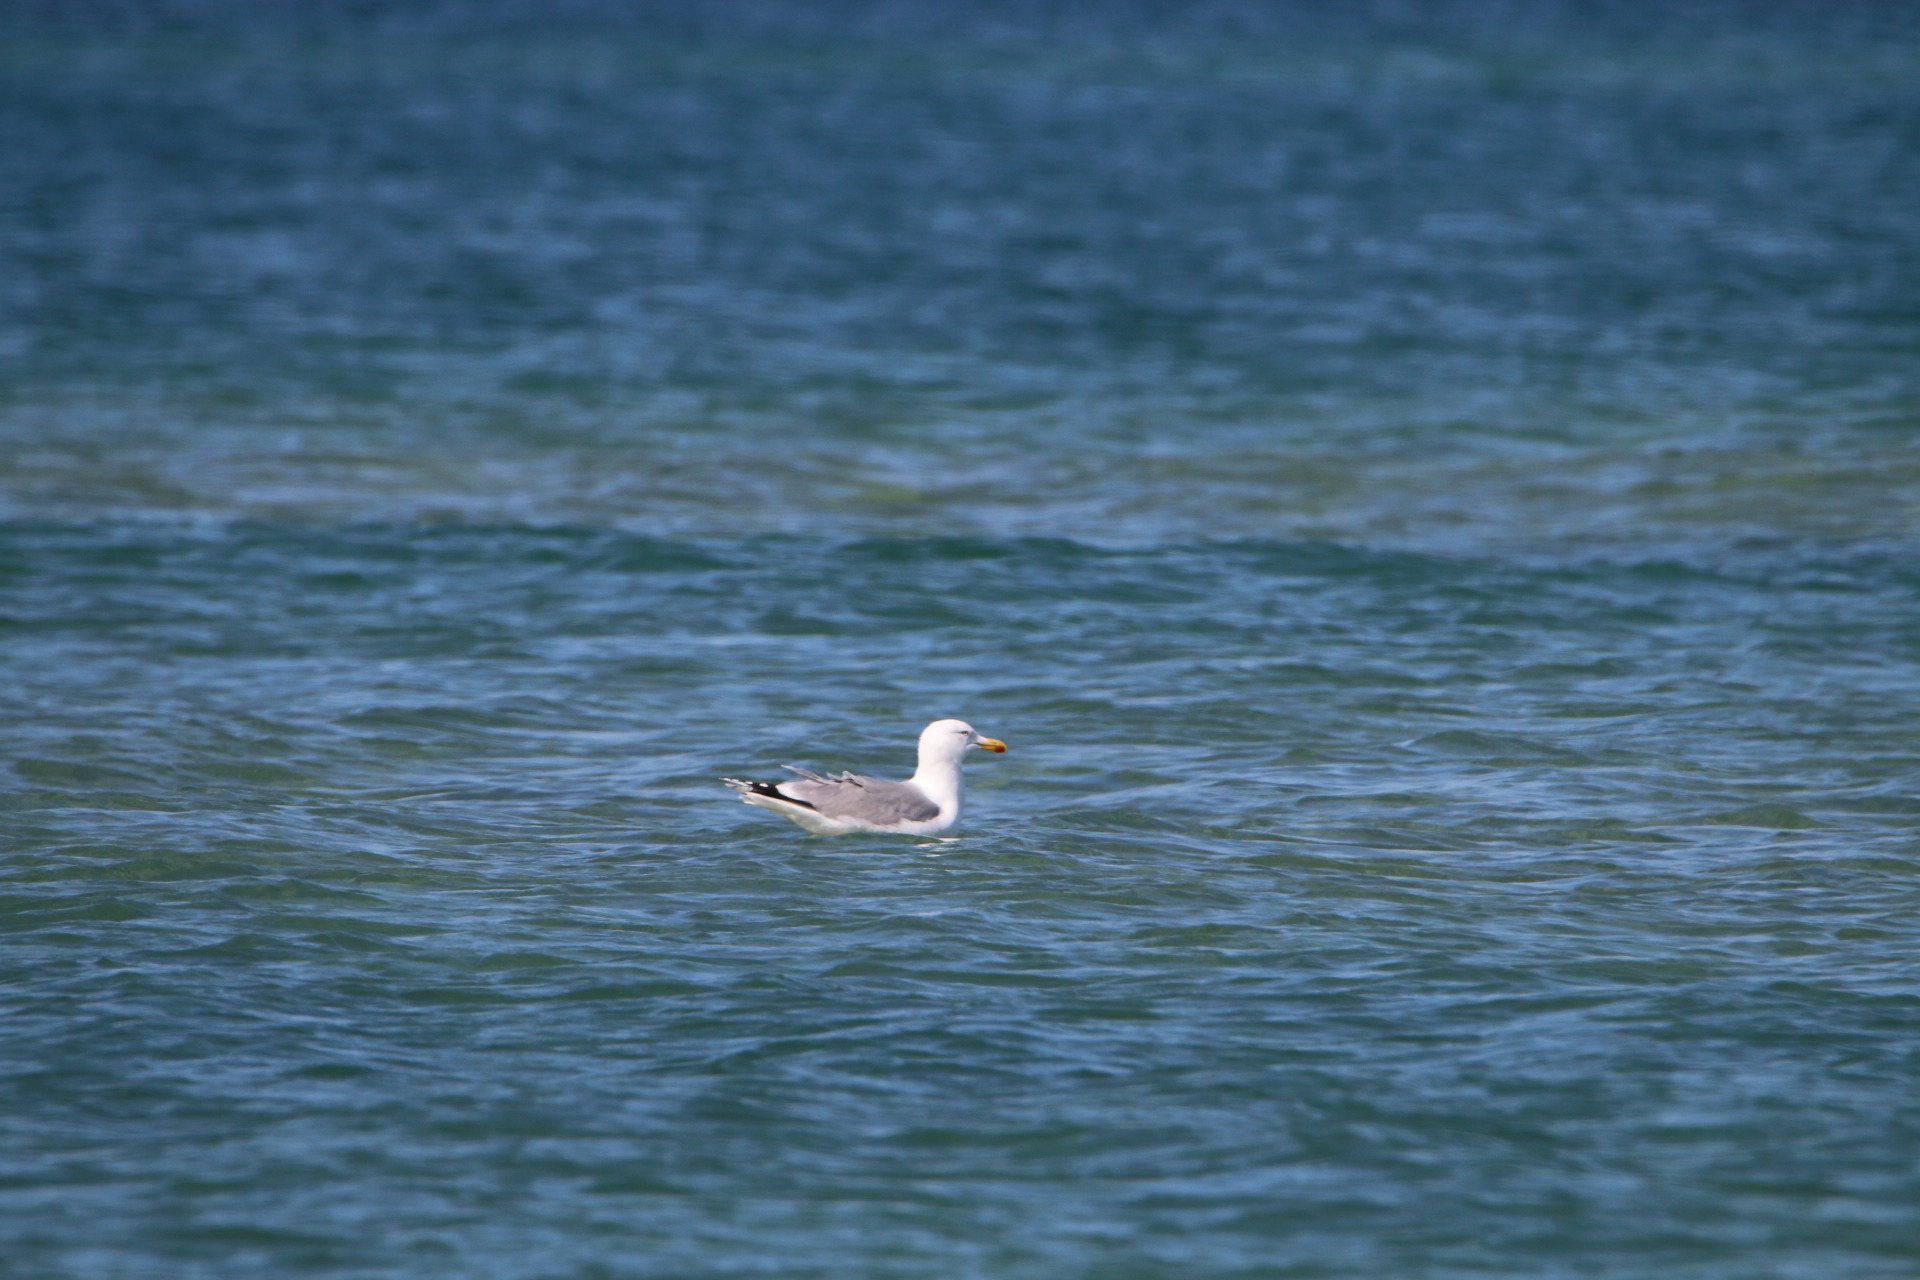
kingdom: Animalia
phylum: Chordata
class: Aves
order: Charadriiformes
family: Laridae
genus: Larus
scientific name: Larus argentatus
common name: Sølvmåge
